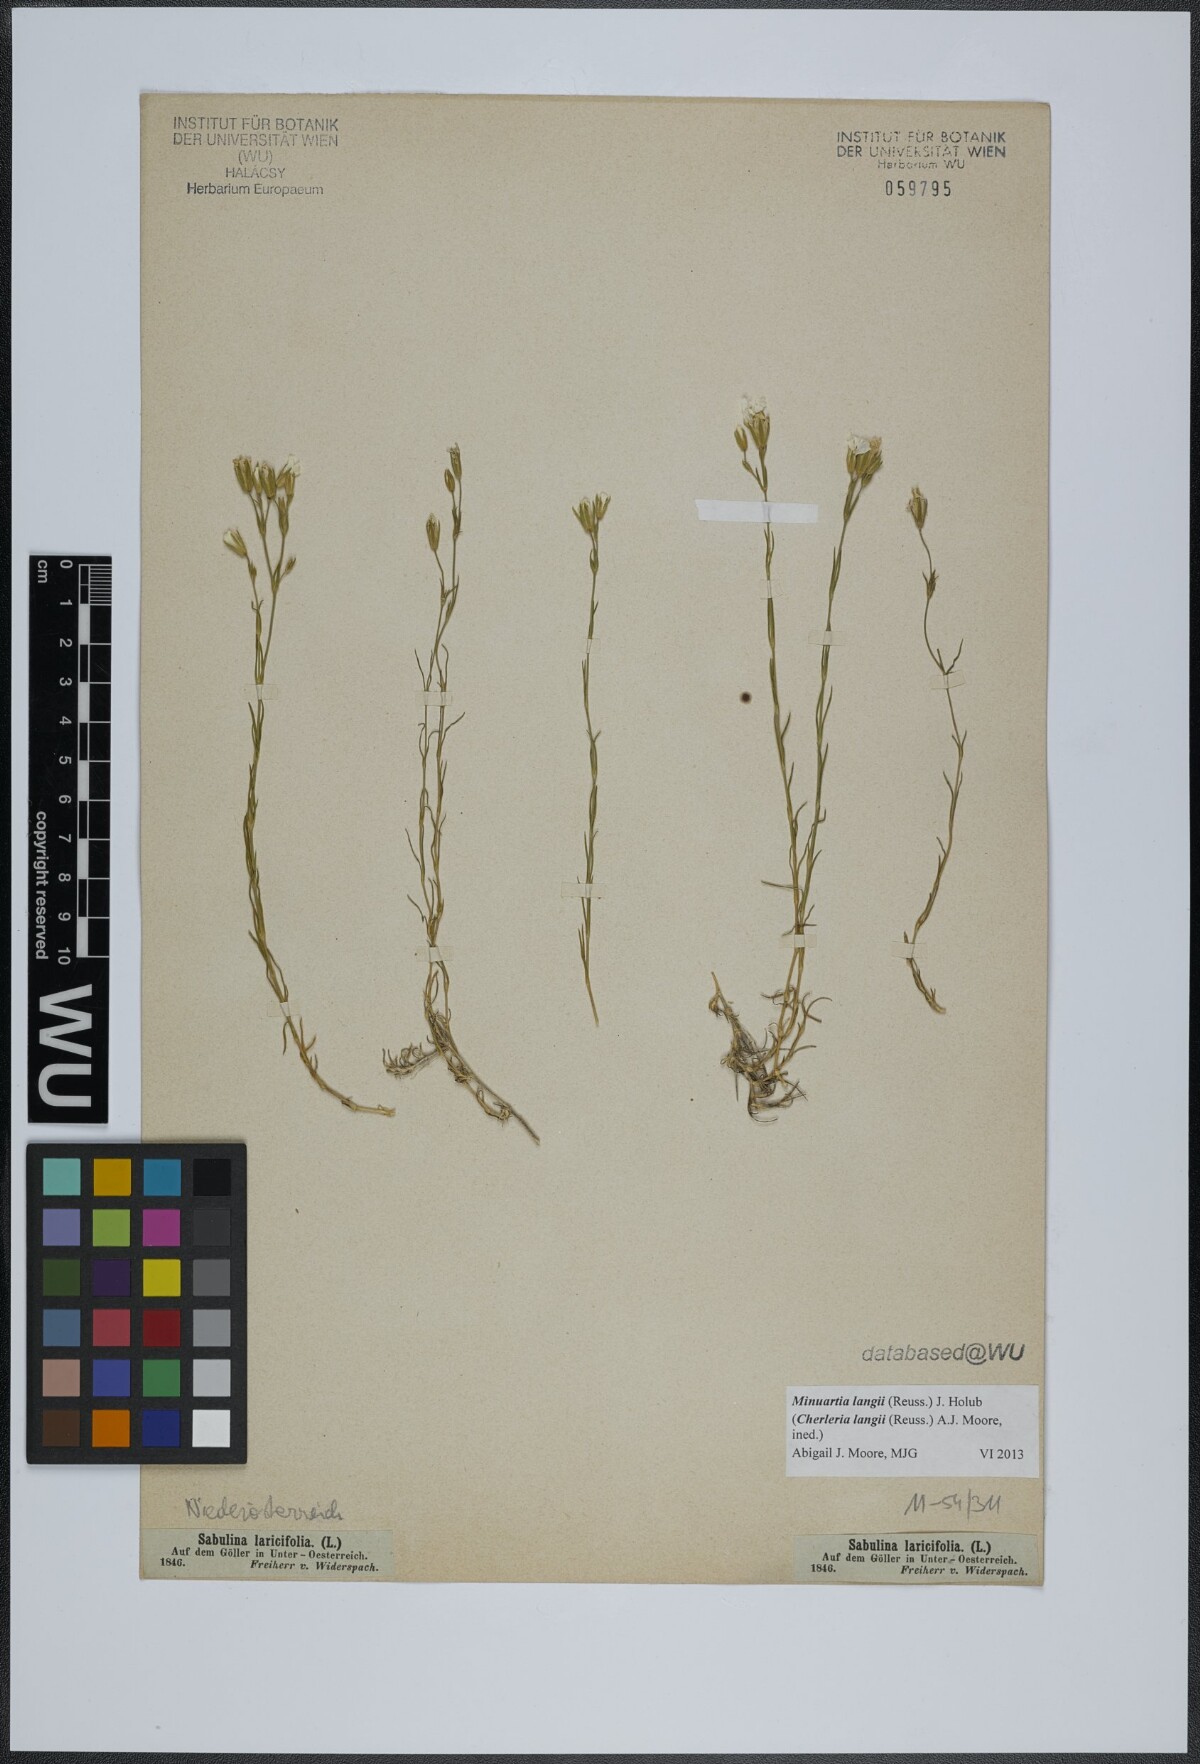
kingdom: Plantae
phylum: Tracheophyta
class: Magnoliopsida
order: Caryophyllales
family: Caryophyllaceae
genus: Cherleria
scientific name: Cherleria langii
